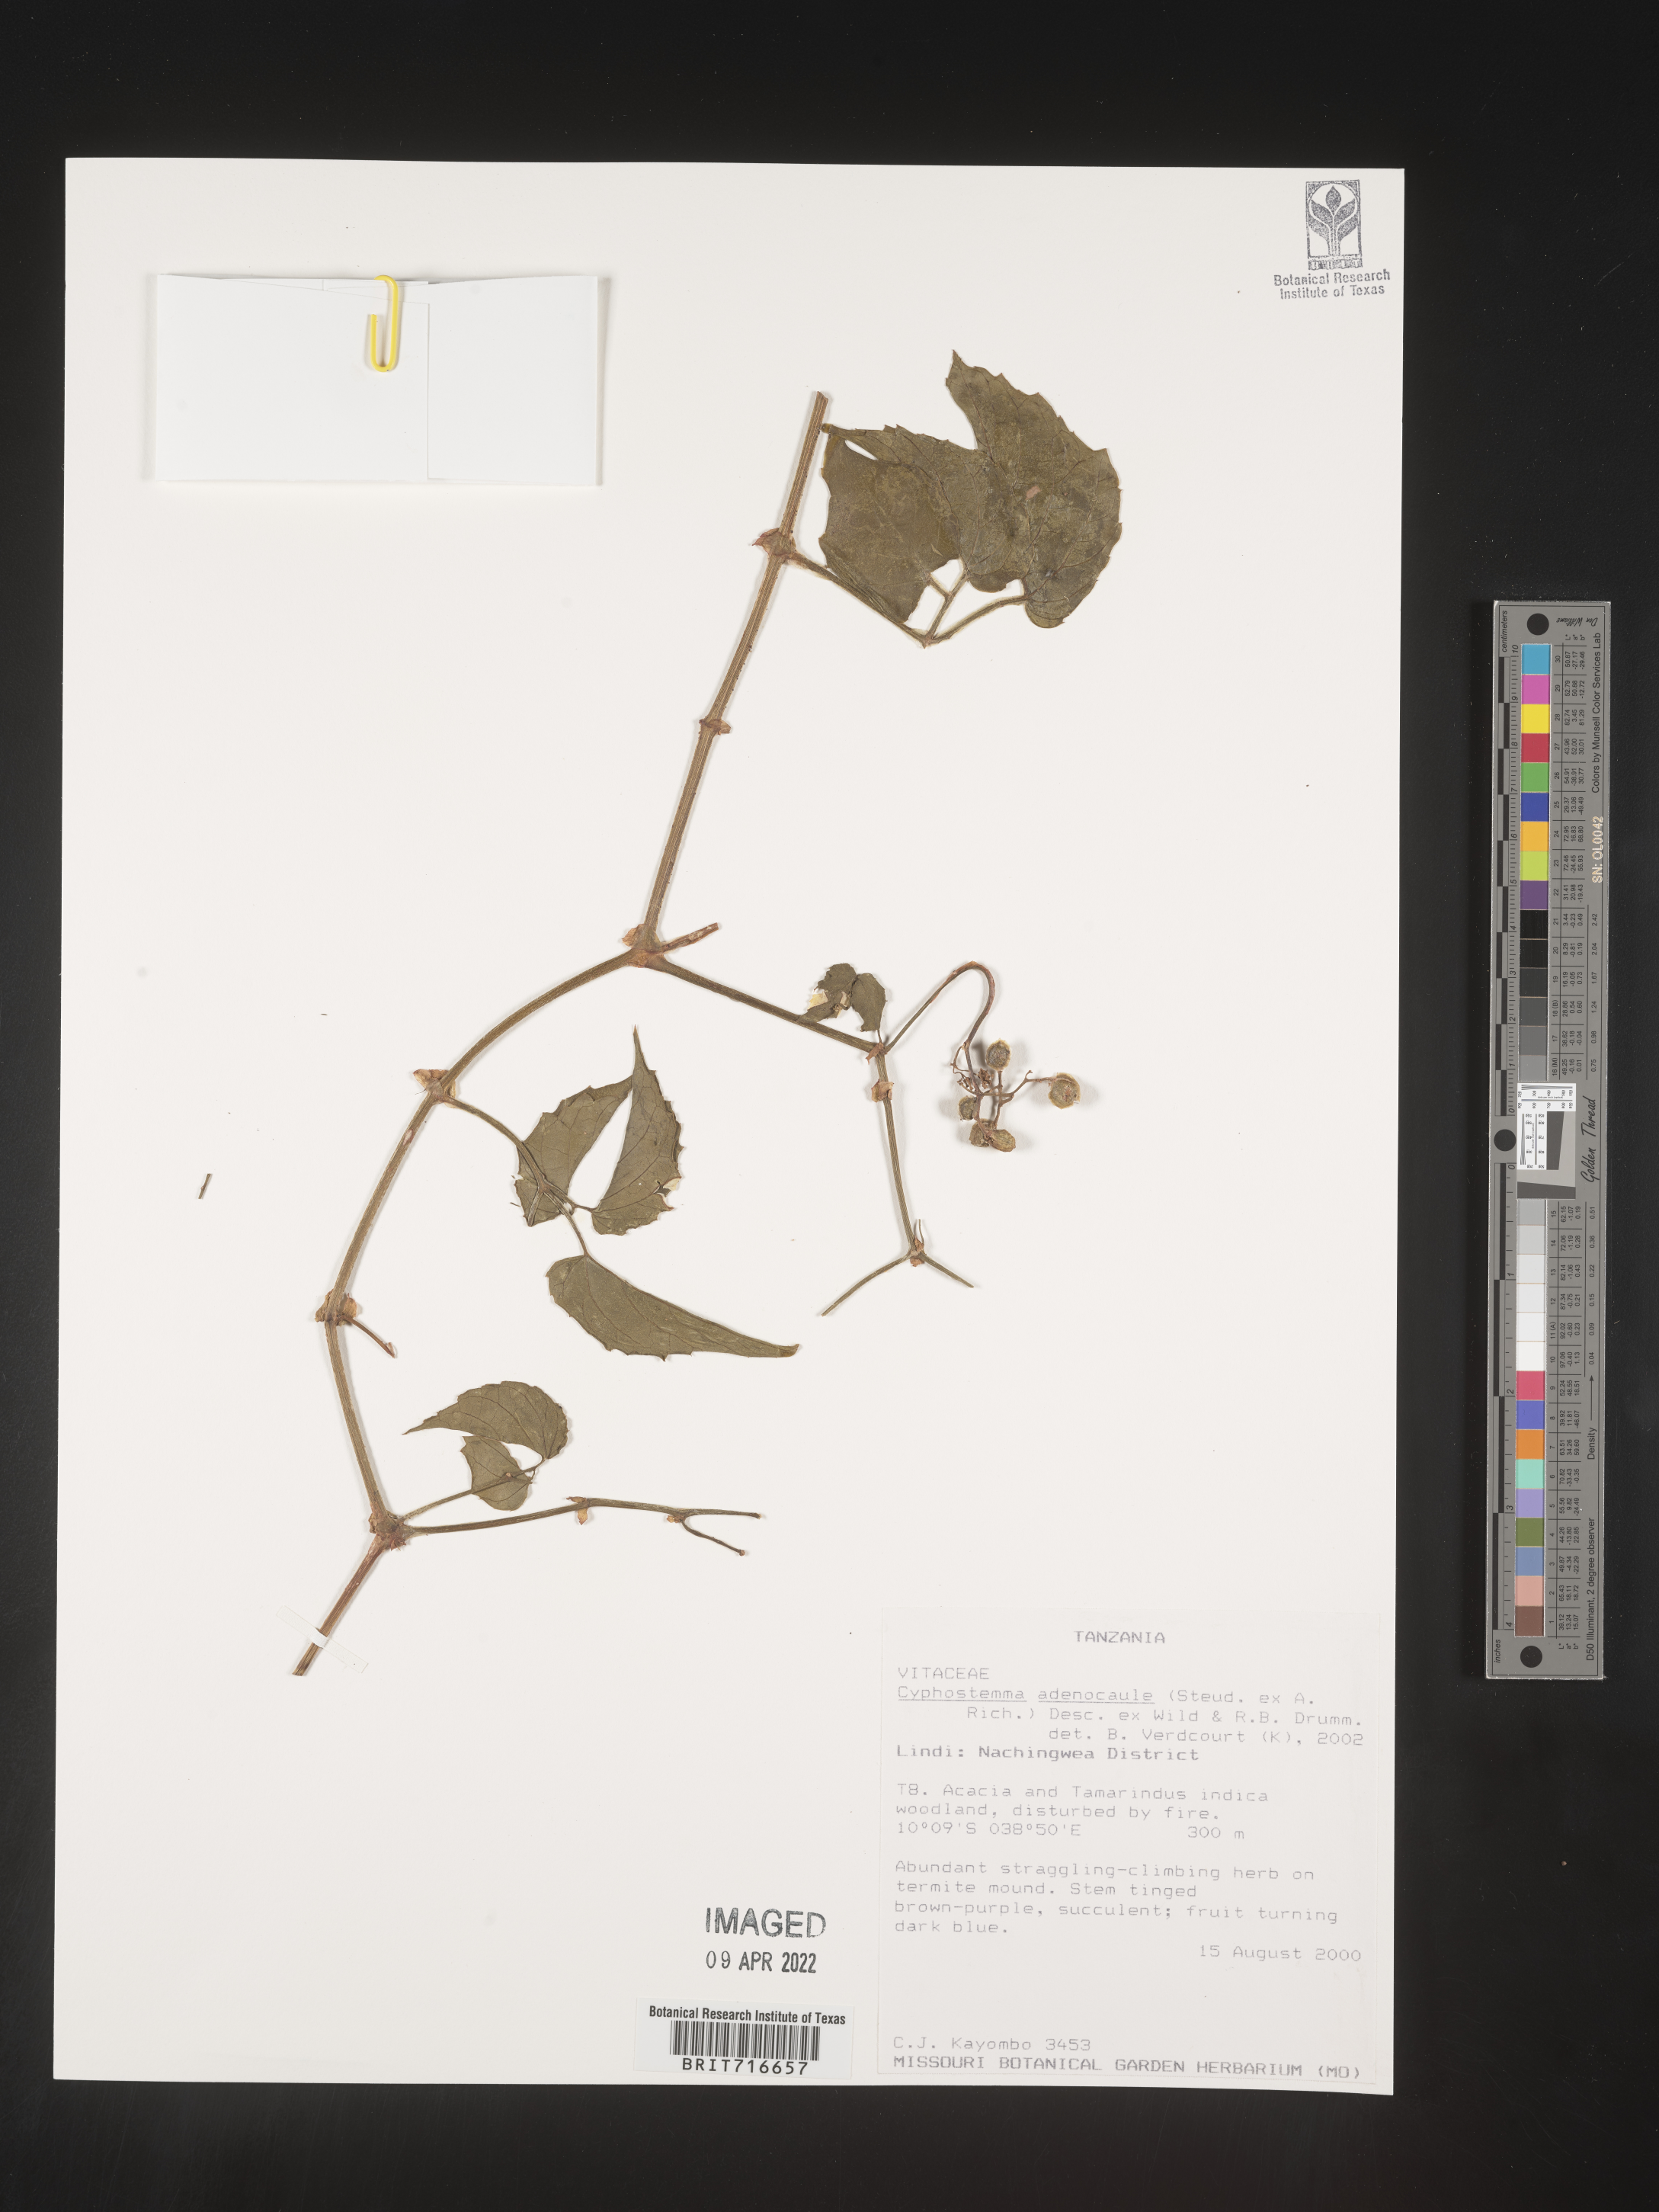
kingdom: Plantae
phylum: Tracheophyta
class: Magnoliopsida
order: Vitales
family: Vitaceae
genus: Cyphostemma
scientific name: Cyphostemma
